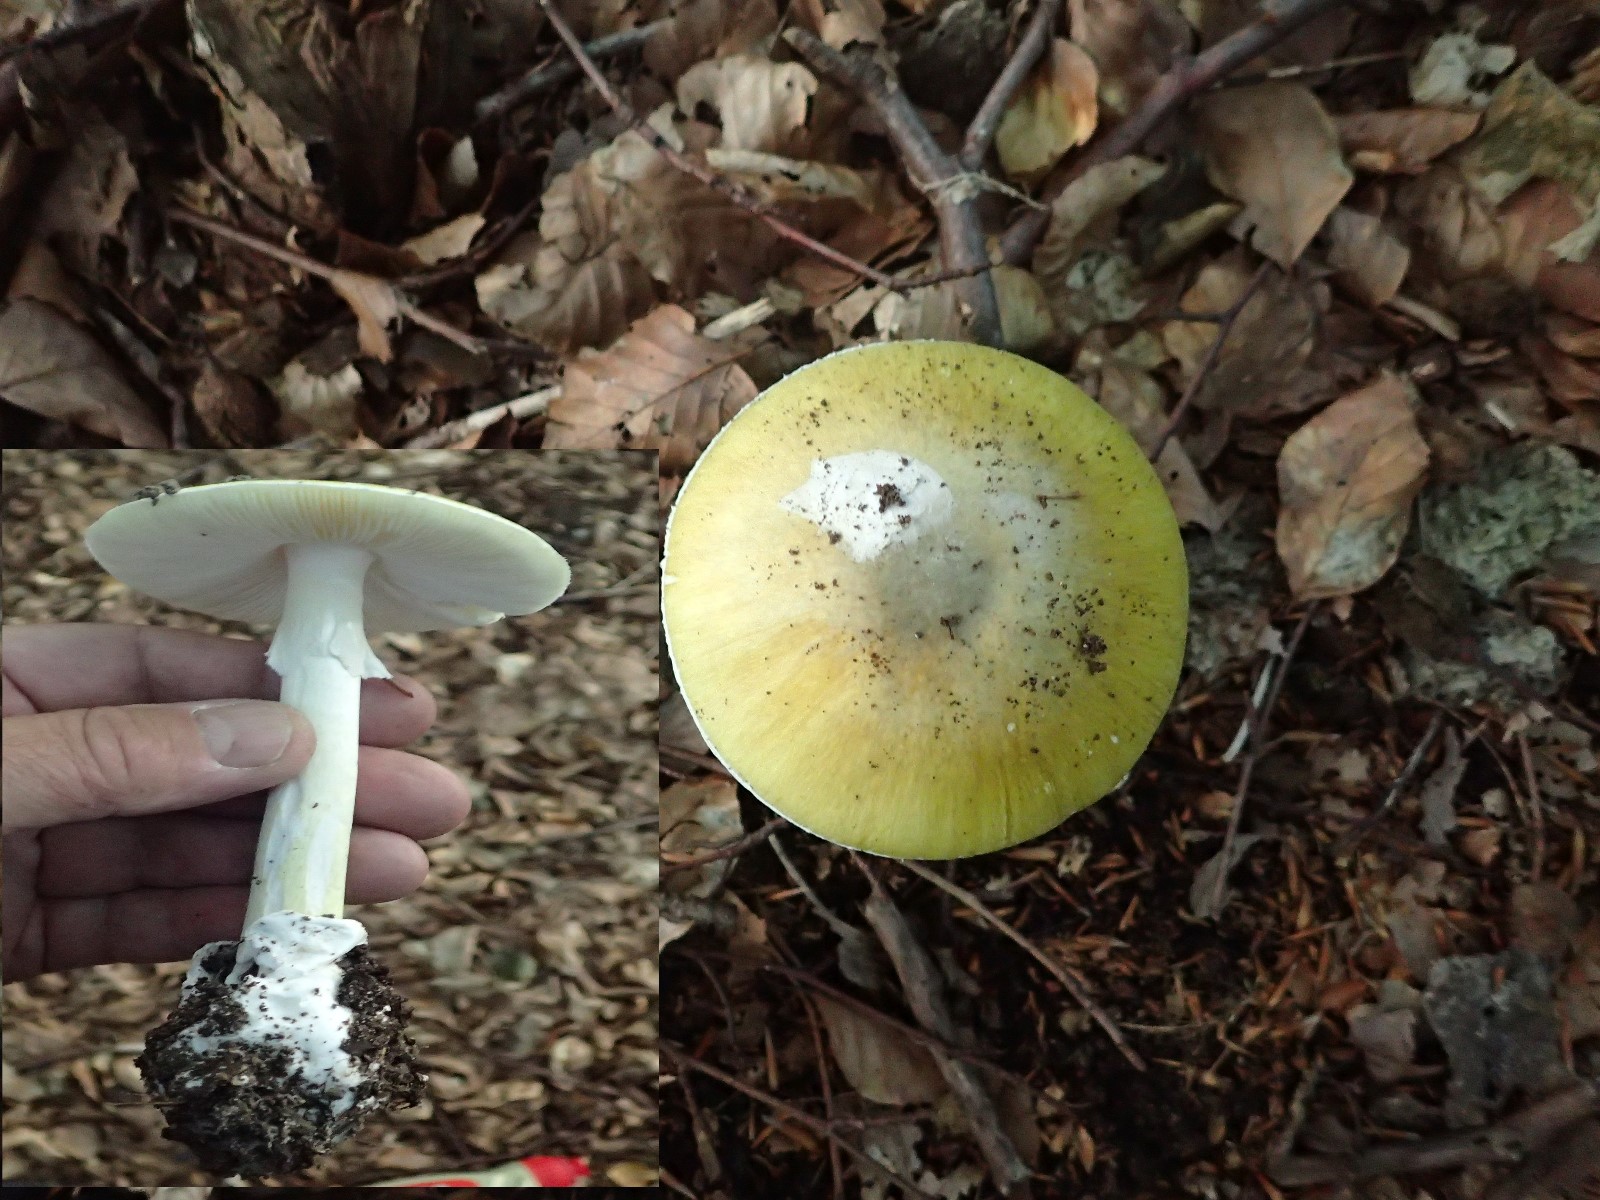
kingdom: Fungi
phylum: Basidiomycota
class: Agaricomycetes
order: Agaricales
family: Amanitaceae
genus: Amanita
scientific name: Amanita phalloides
